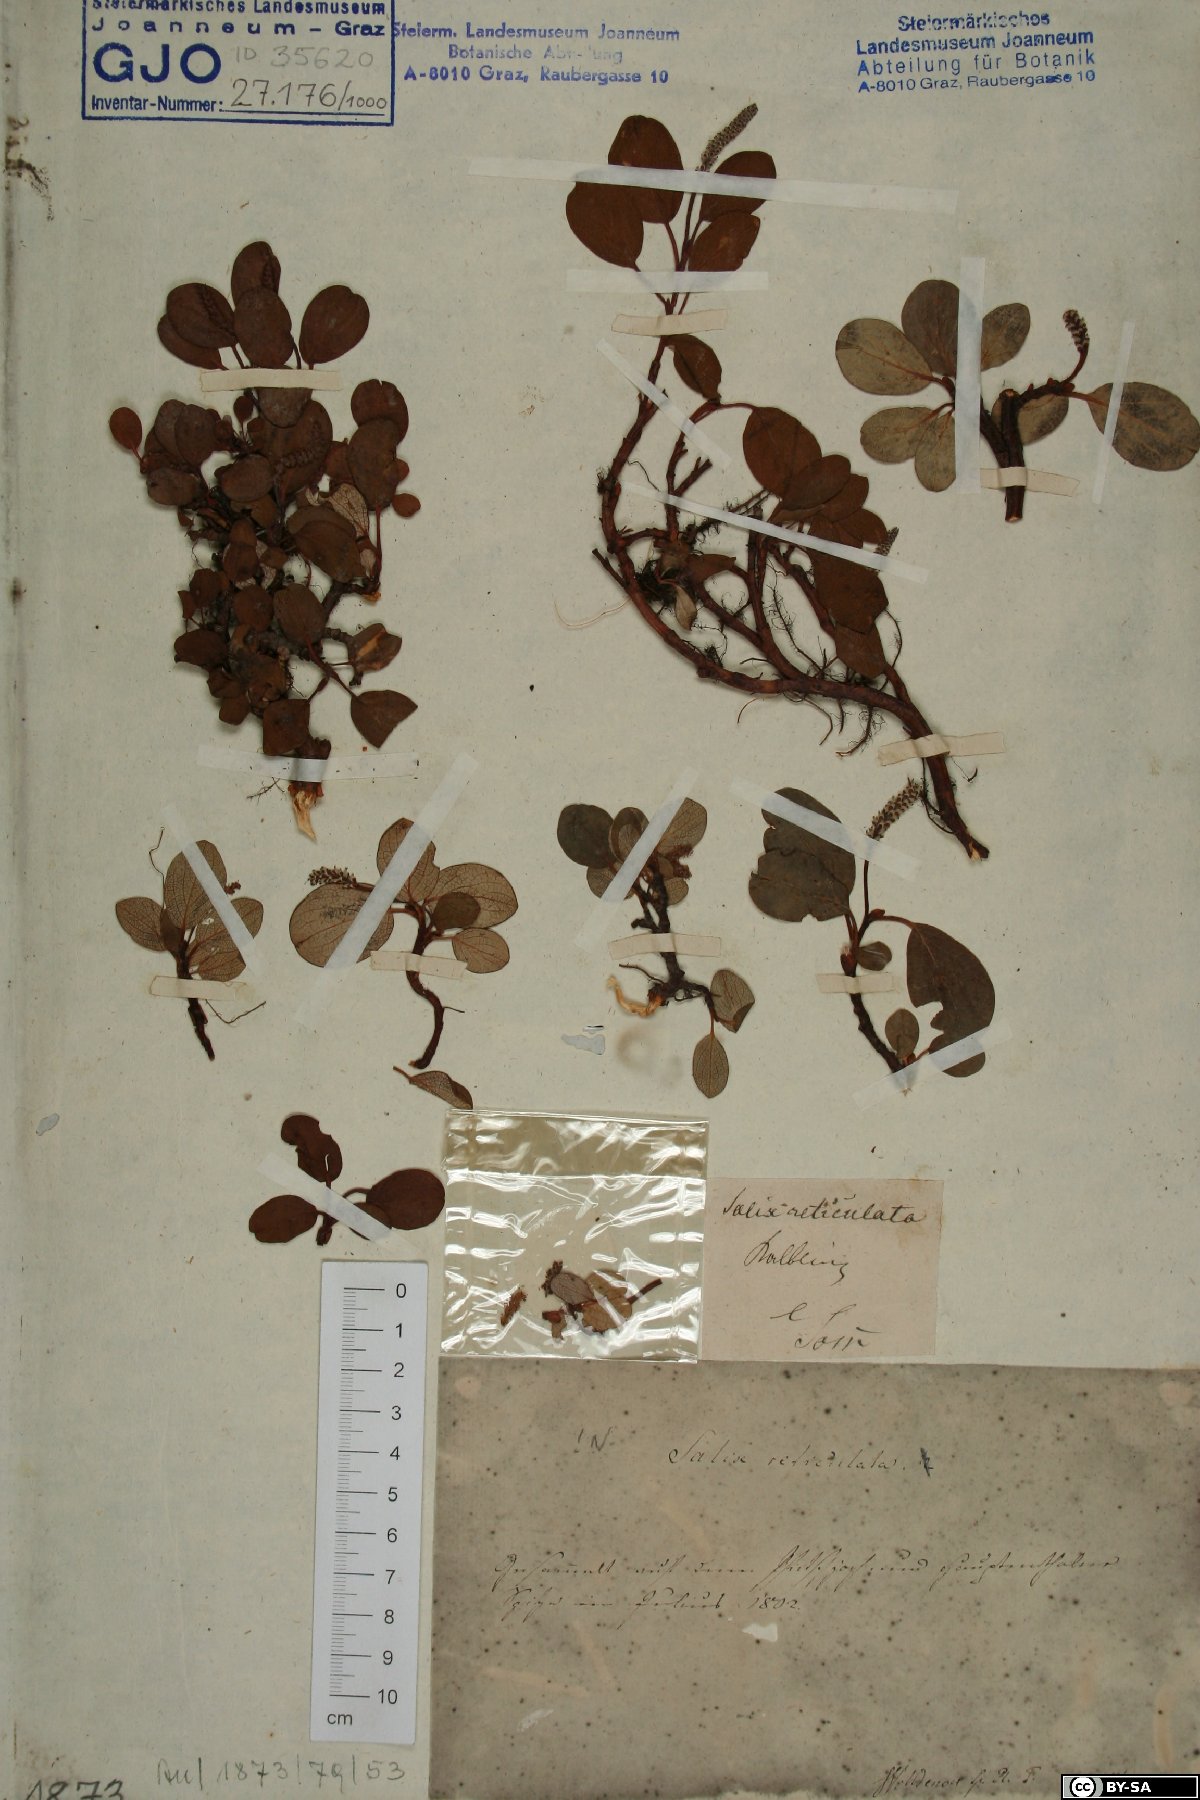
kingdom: Plantae
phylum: Tracheophyta
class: Magnoliopsida
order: Malpighiales
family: Salicaceae
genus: Salix
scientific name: Salix reticulata
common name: Net-leaved willow
